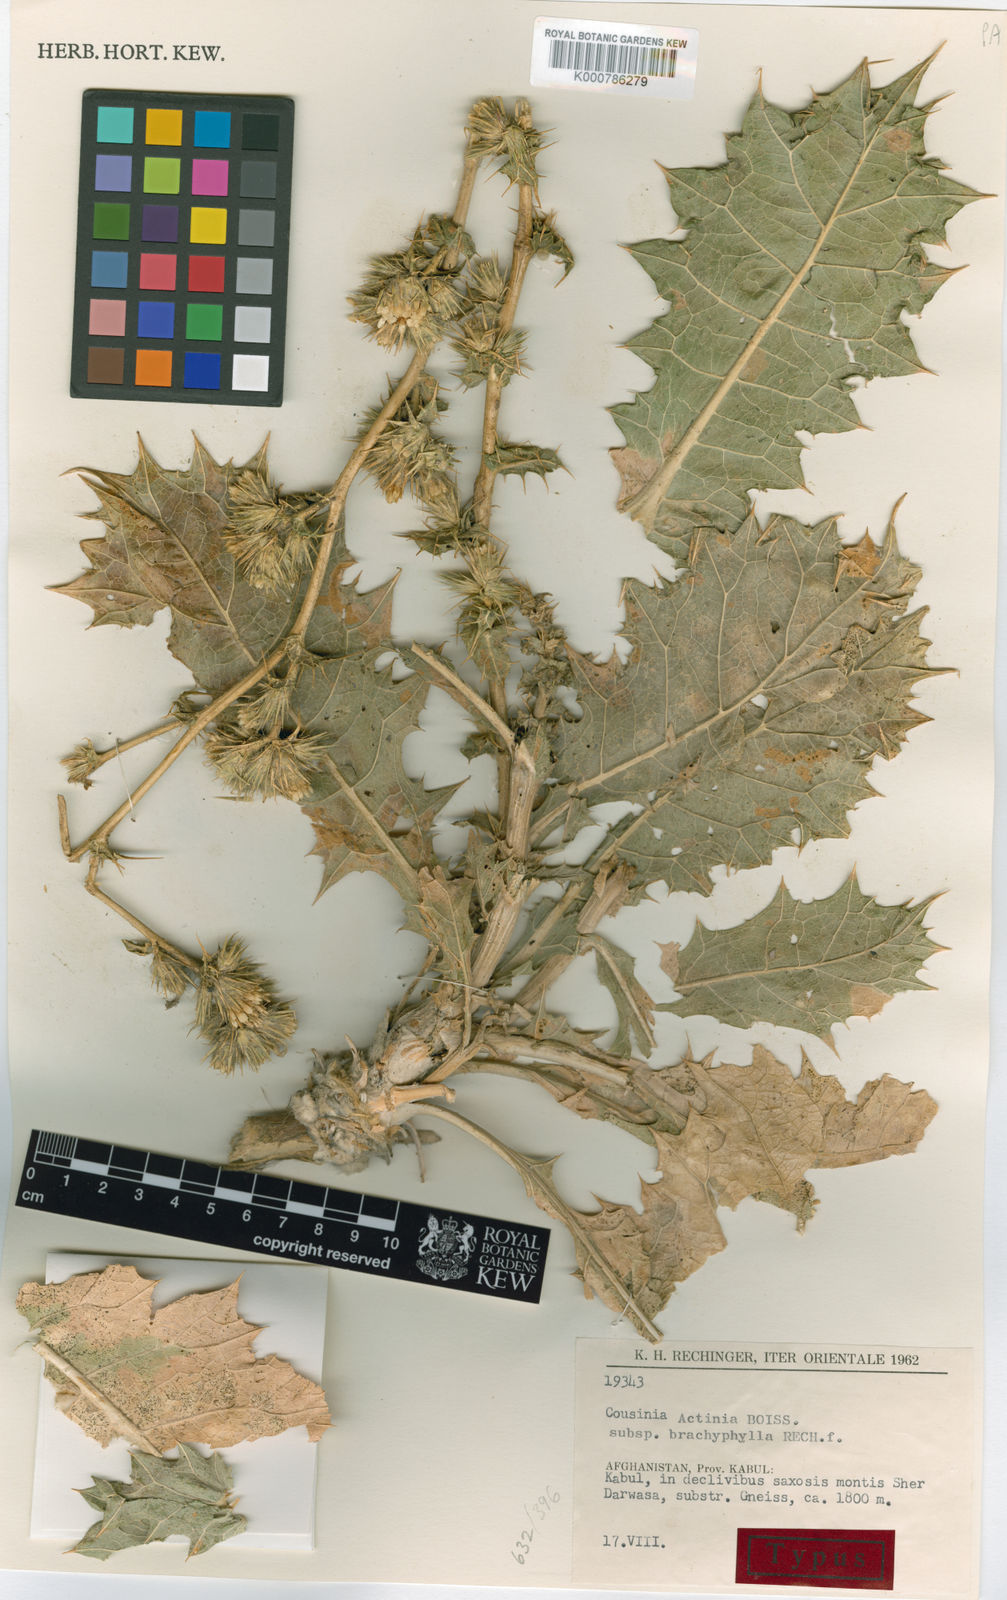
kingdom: Plantae
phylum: Tracheophyta
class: Magnoliopsida
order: Asterales
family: Asteraceae
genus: Cousinia
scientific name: Cousinia actinia
